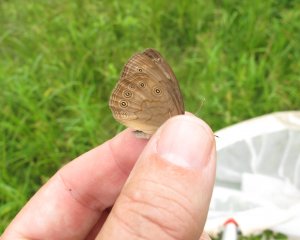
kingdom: Animalia
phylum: Arthropoda
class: Insecta
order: Lepidoptera
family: Nymphalidae
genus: Lethe
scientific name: Lethe eurydice
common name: Eyed Brown
